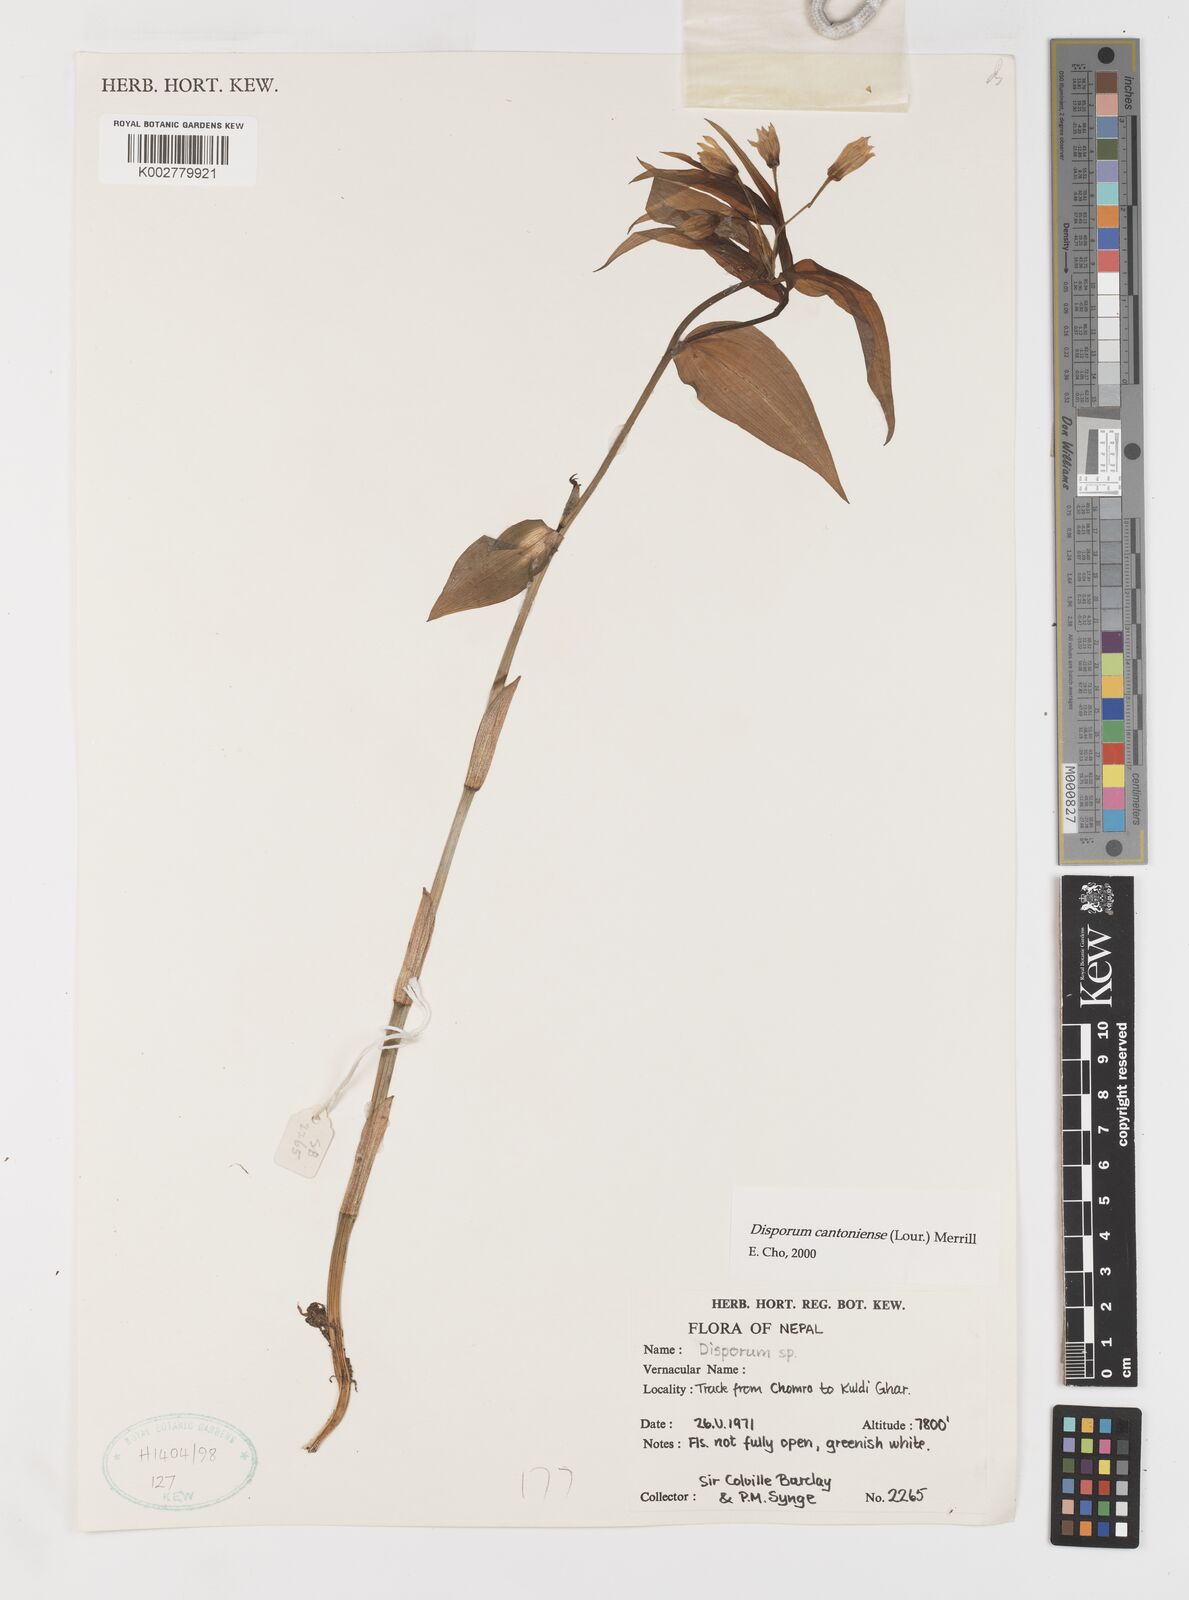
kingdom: Plantae
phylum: Tracheophyta
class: Liliopsida
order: Liliales
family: Colchicaceae
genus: Disporum
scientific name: Disporum cantoniense
